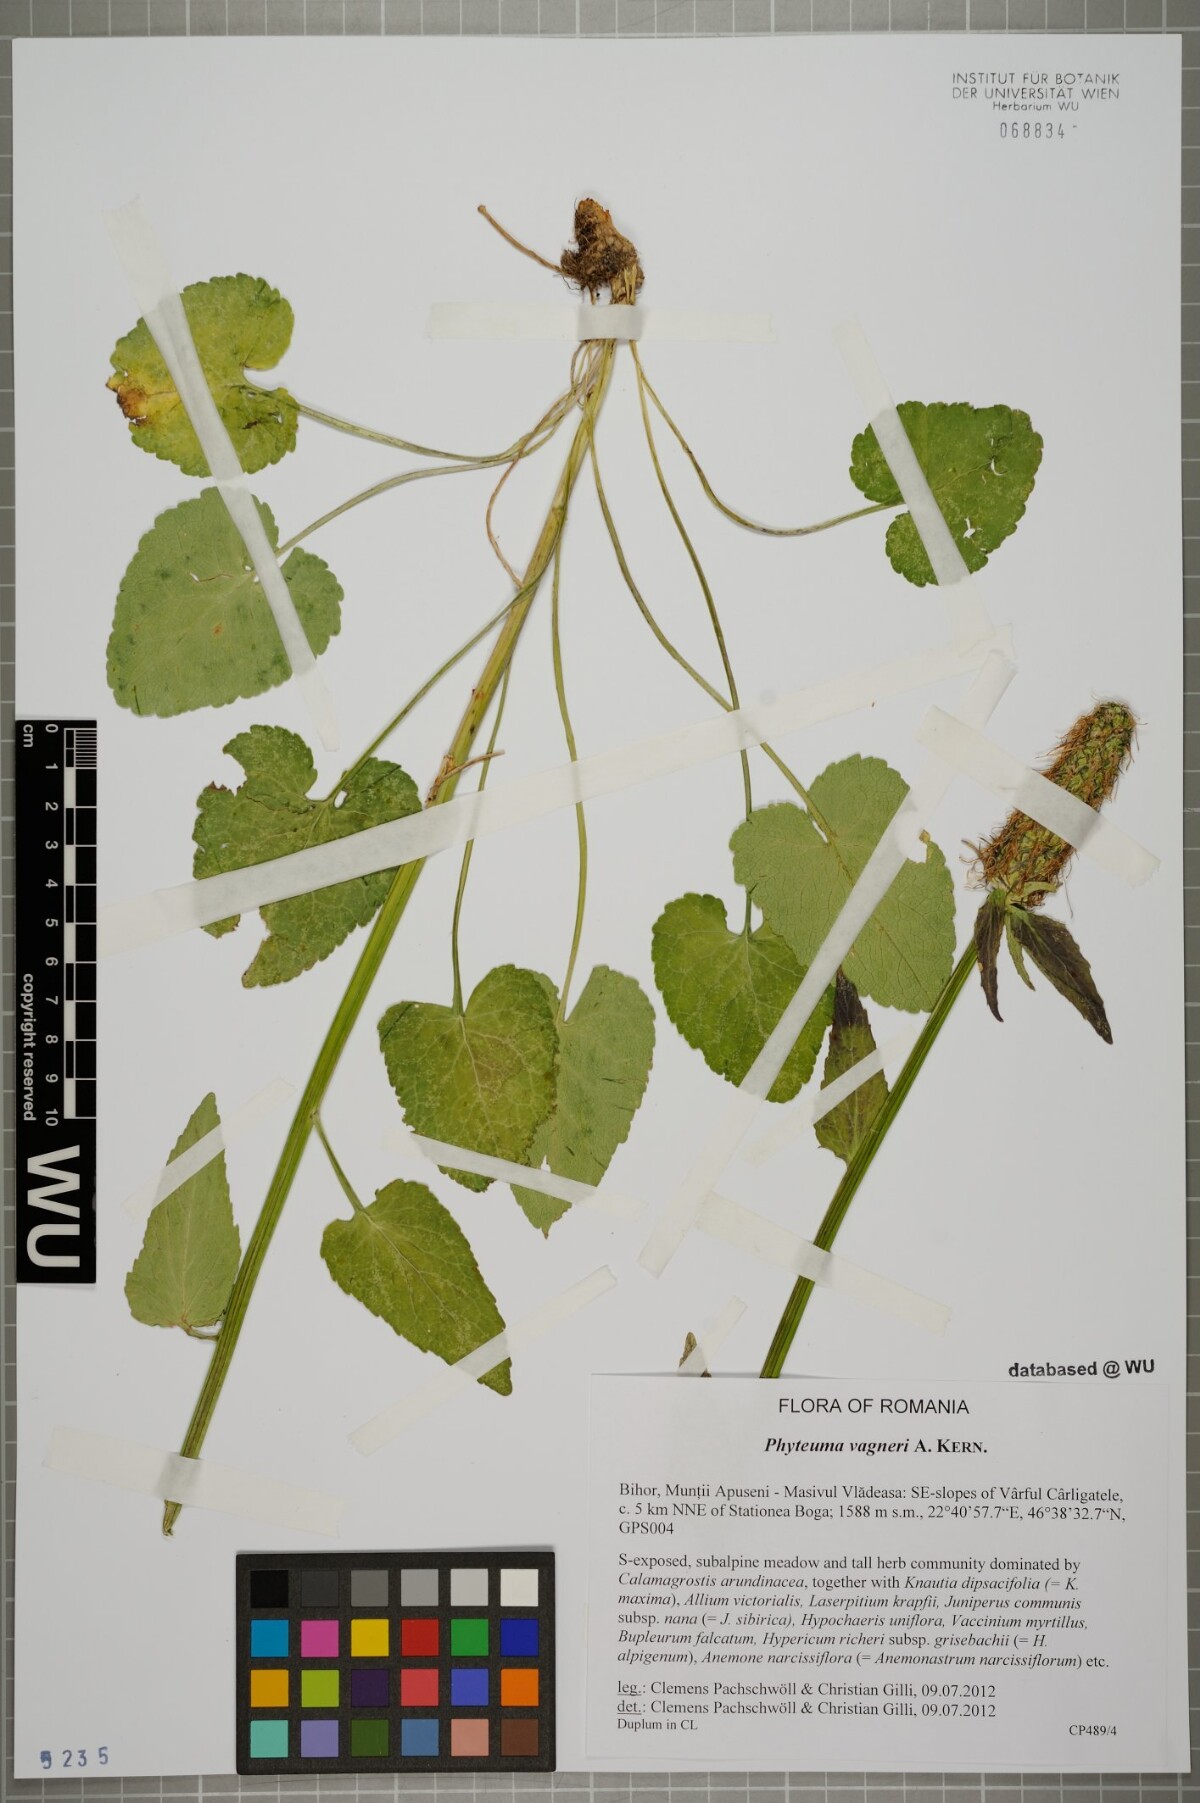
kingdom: Plantae
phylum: Tracheophyta
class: Magnoliopsida
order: Asterales
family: Campanulaceae
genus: Phyteuma
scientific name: Phyteuma vagneri
